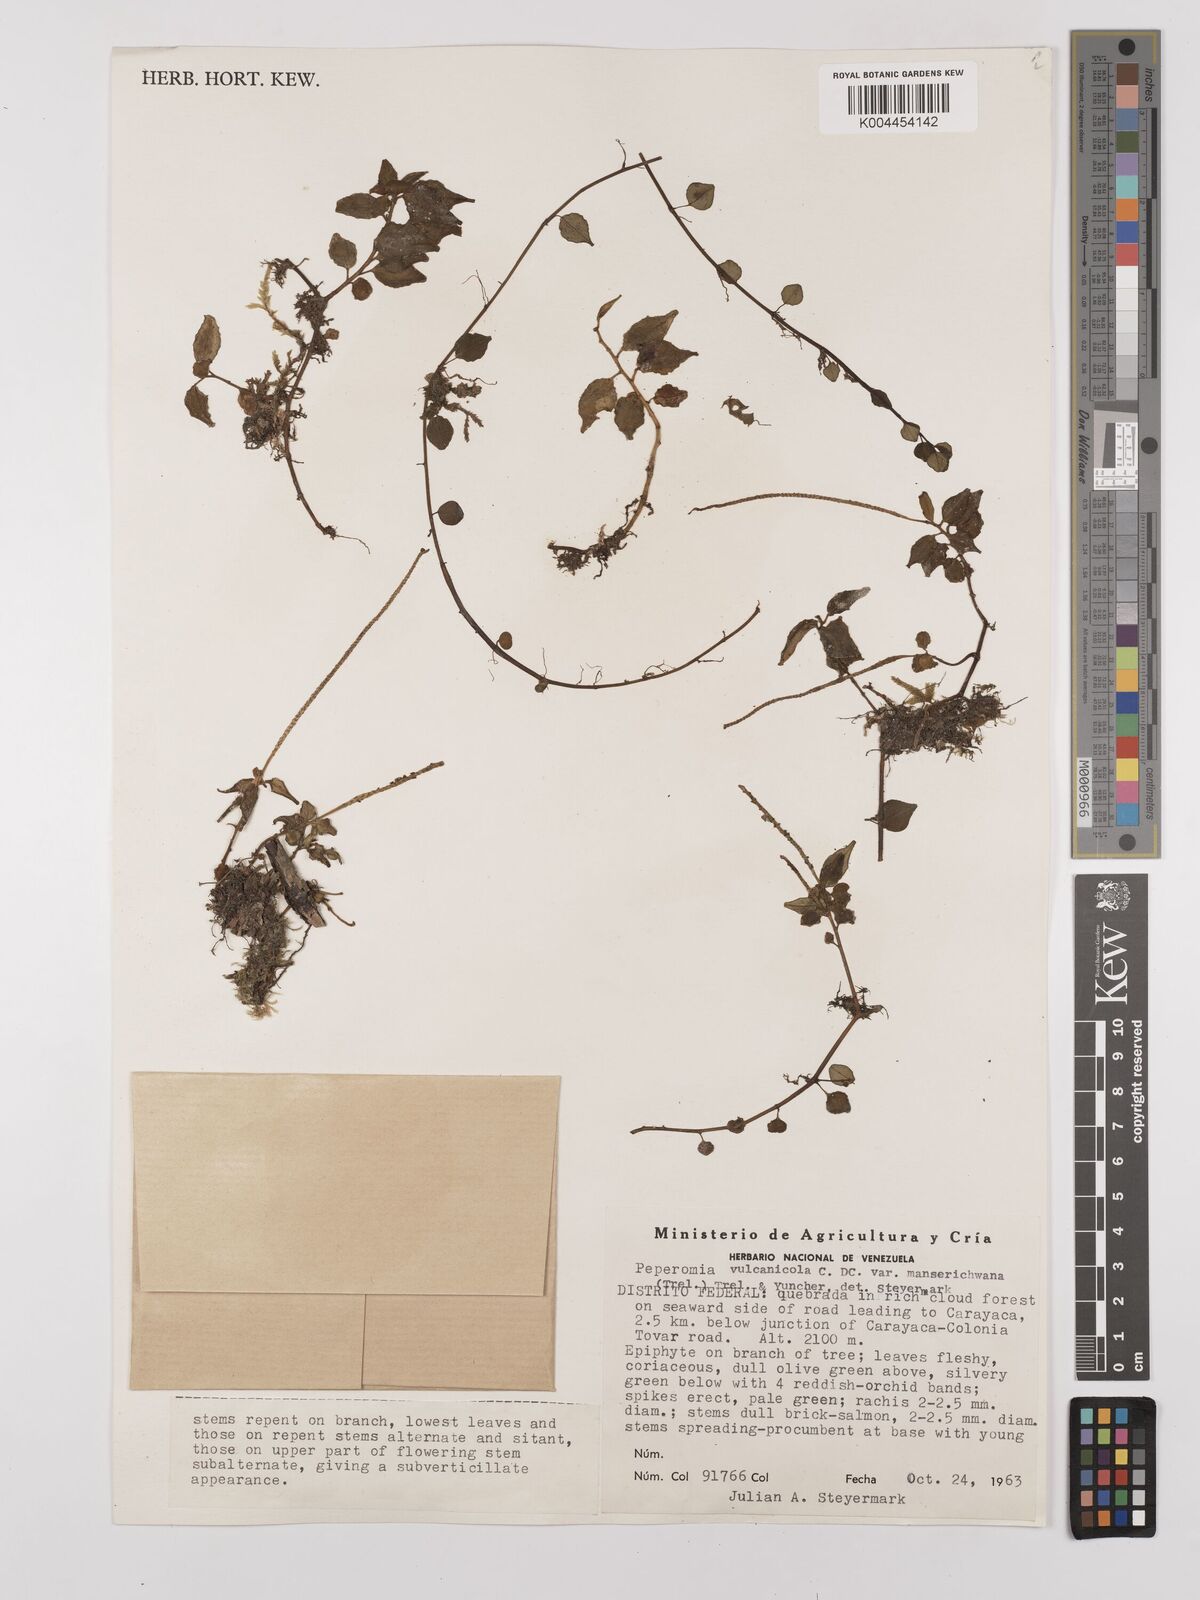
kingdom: Plantae
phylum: Tracheophyta
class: Magnoliopsida
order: Piperales
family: Piperaceae
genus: Peperomia
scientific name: Peperomia heterophylla
